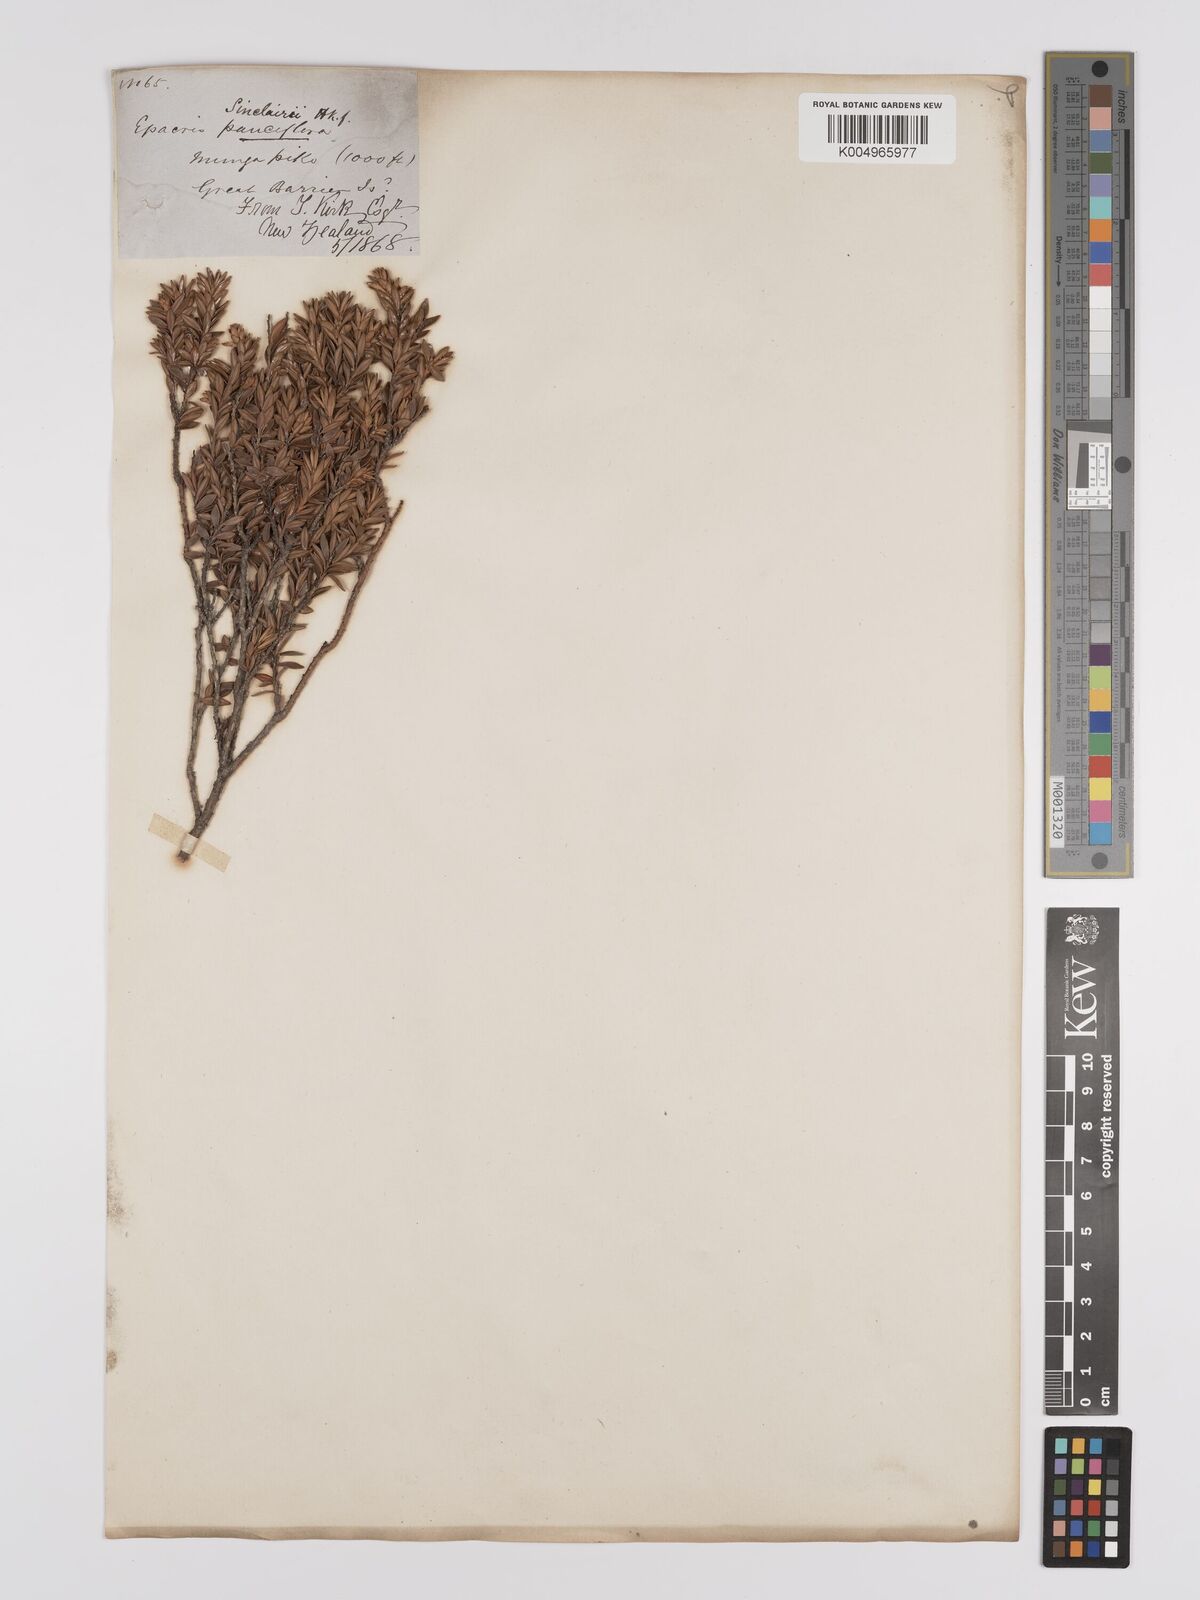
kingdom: Plantae
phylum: Tracheophyta
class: Magnoliopsida
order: Ericales
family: Ericaceae
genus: Epacris
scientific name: Epacris sinclairii
